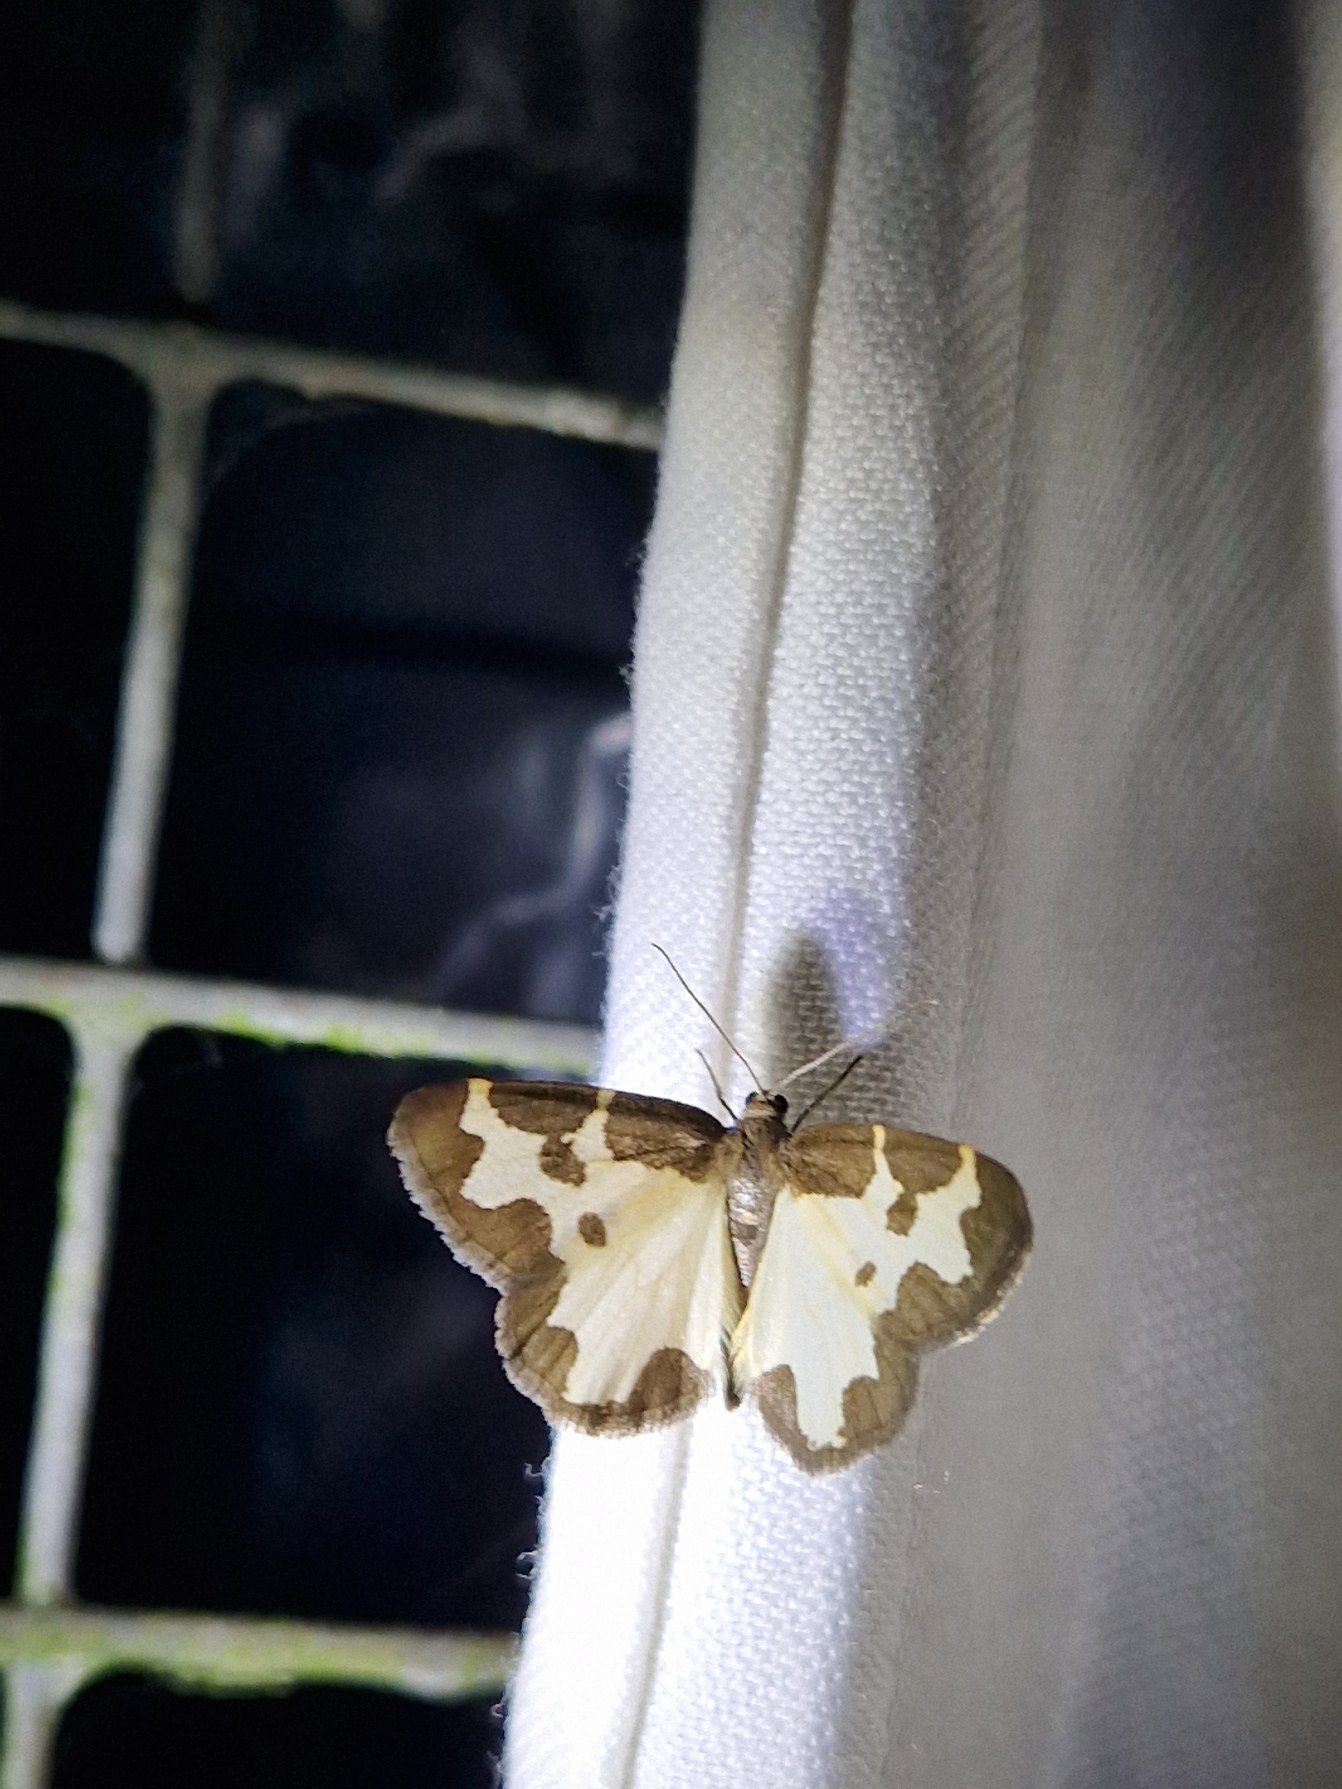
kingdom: Animalia
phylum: Arthropoda
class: Insecta
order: Lepidoptera
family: Geometridae
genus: Lomaspilis
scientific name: Lomaspilis marginata
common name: Sortrandet måler
